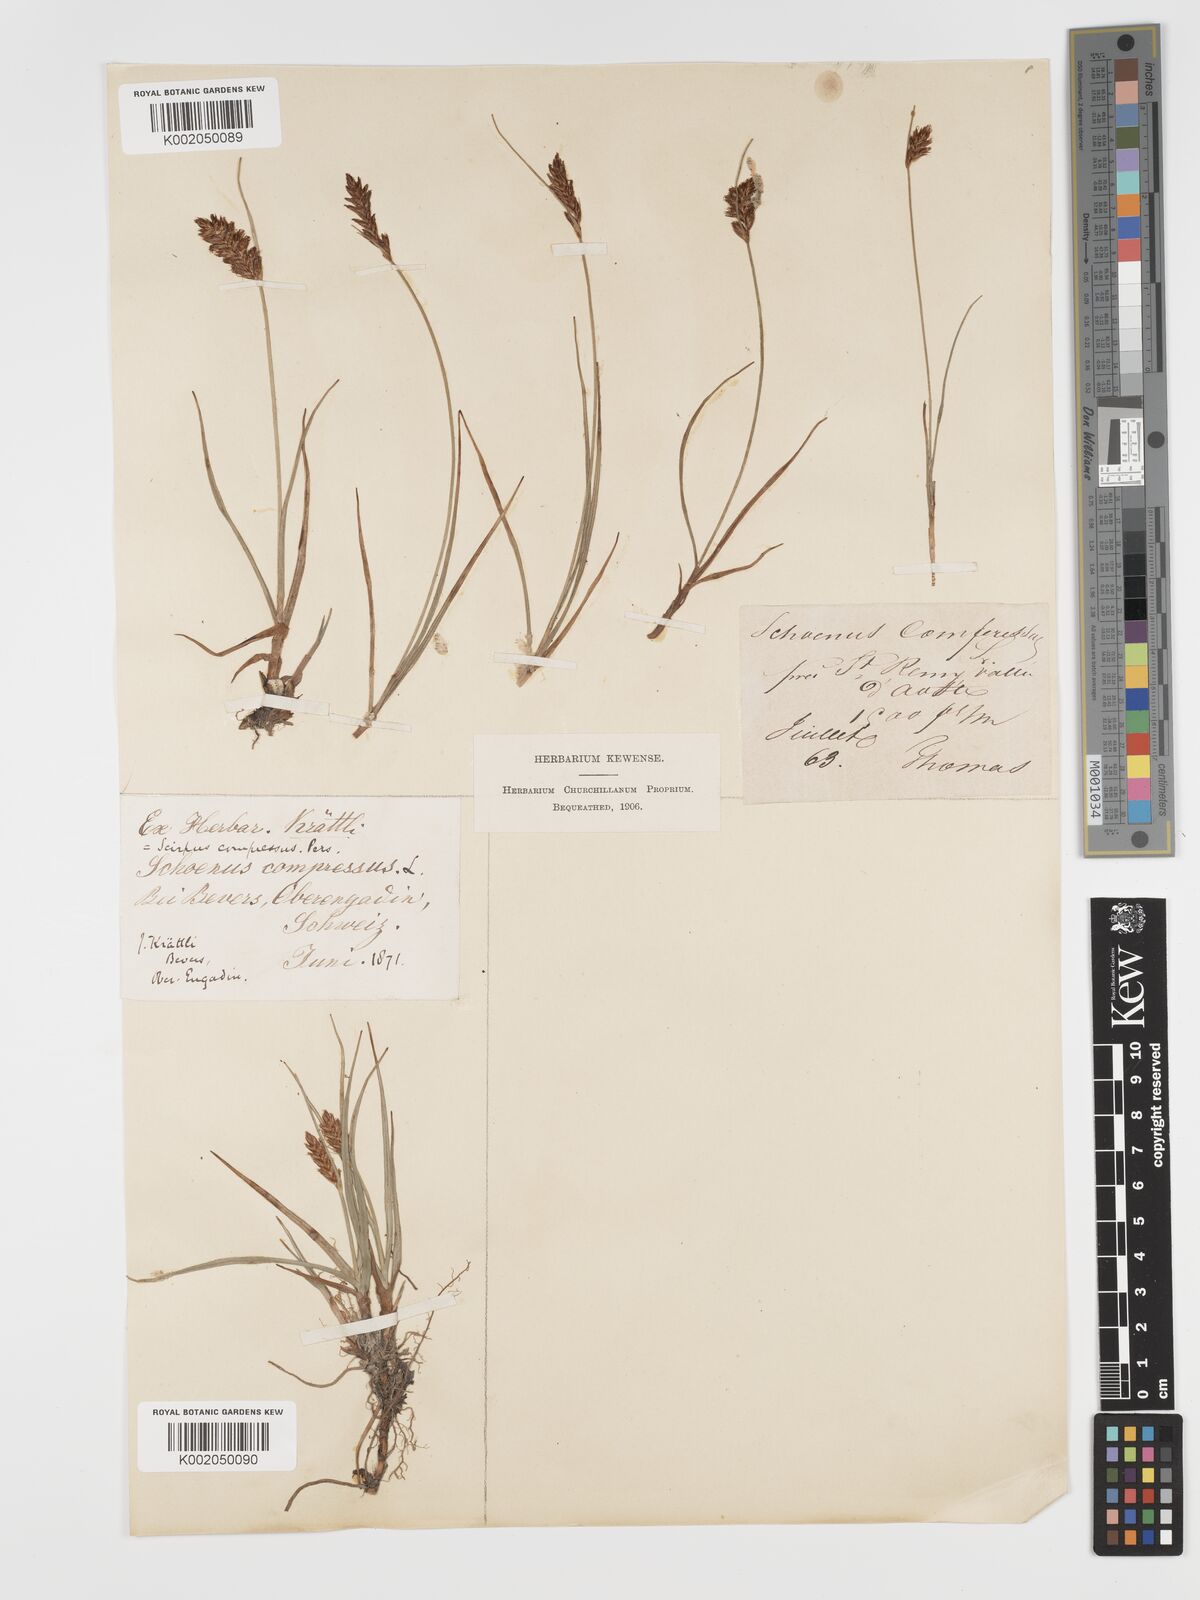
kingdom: Plantae
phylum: Tracheophyta
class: Liliopsida
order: Poales
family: Cyperaceae
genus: Blysmus
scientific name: Blysmus compressus
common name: Flat-sedge
